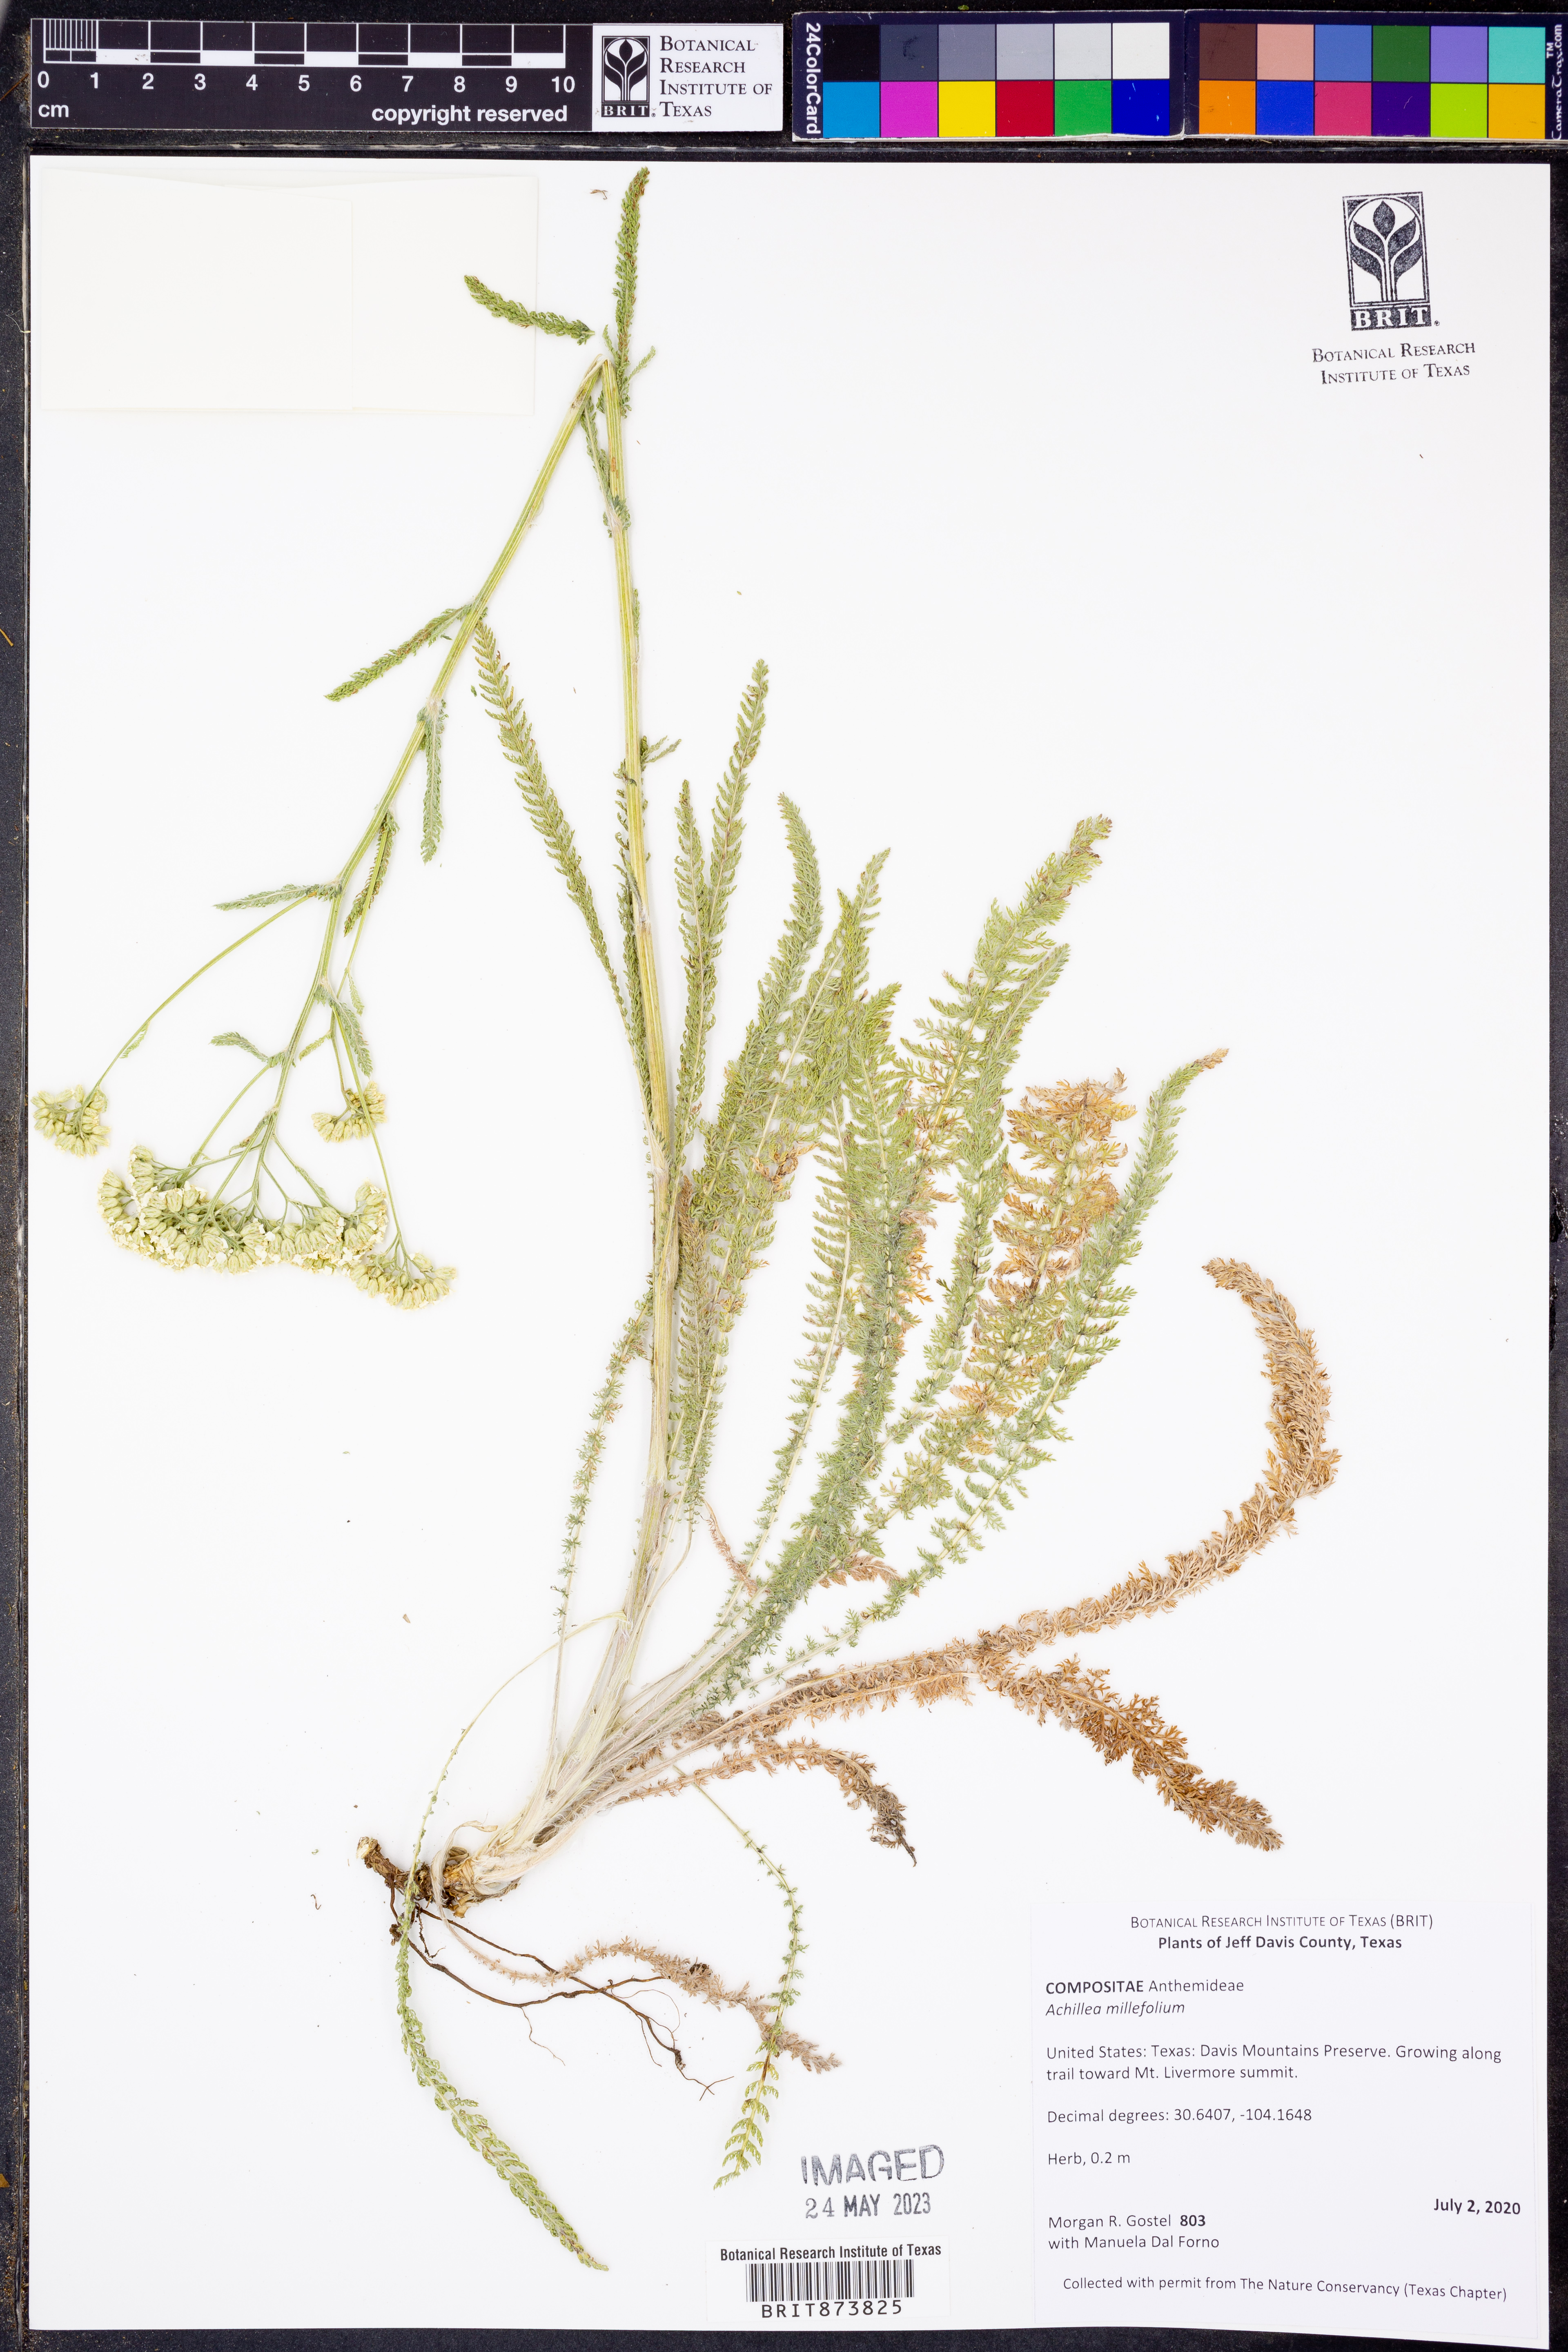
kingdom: Plantae
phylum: Tracheophyta
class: Magnoliopsida
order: Asterales
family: Asteraceae
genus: Achillea
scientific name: Achillea millefolium
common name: Yarrow
